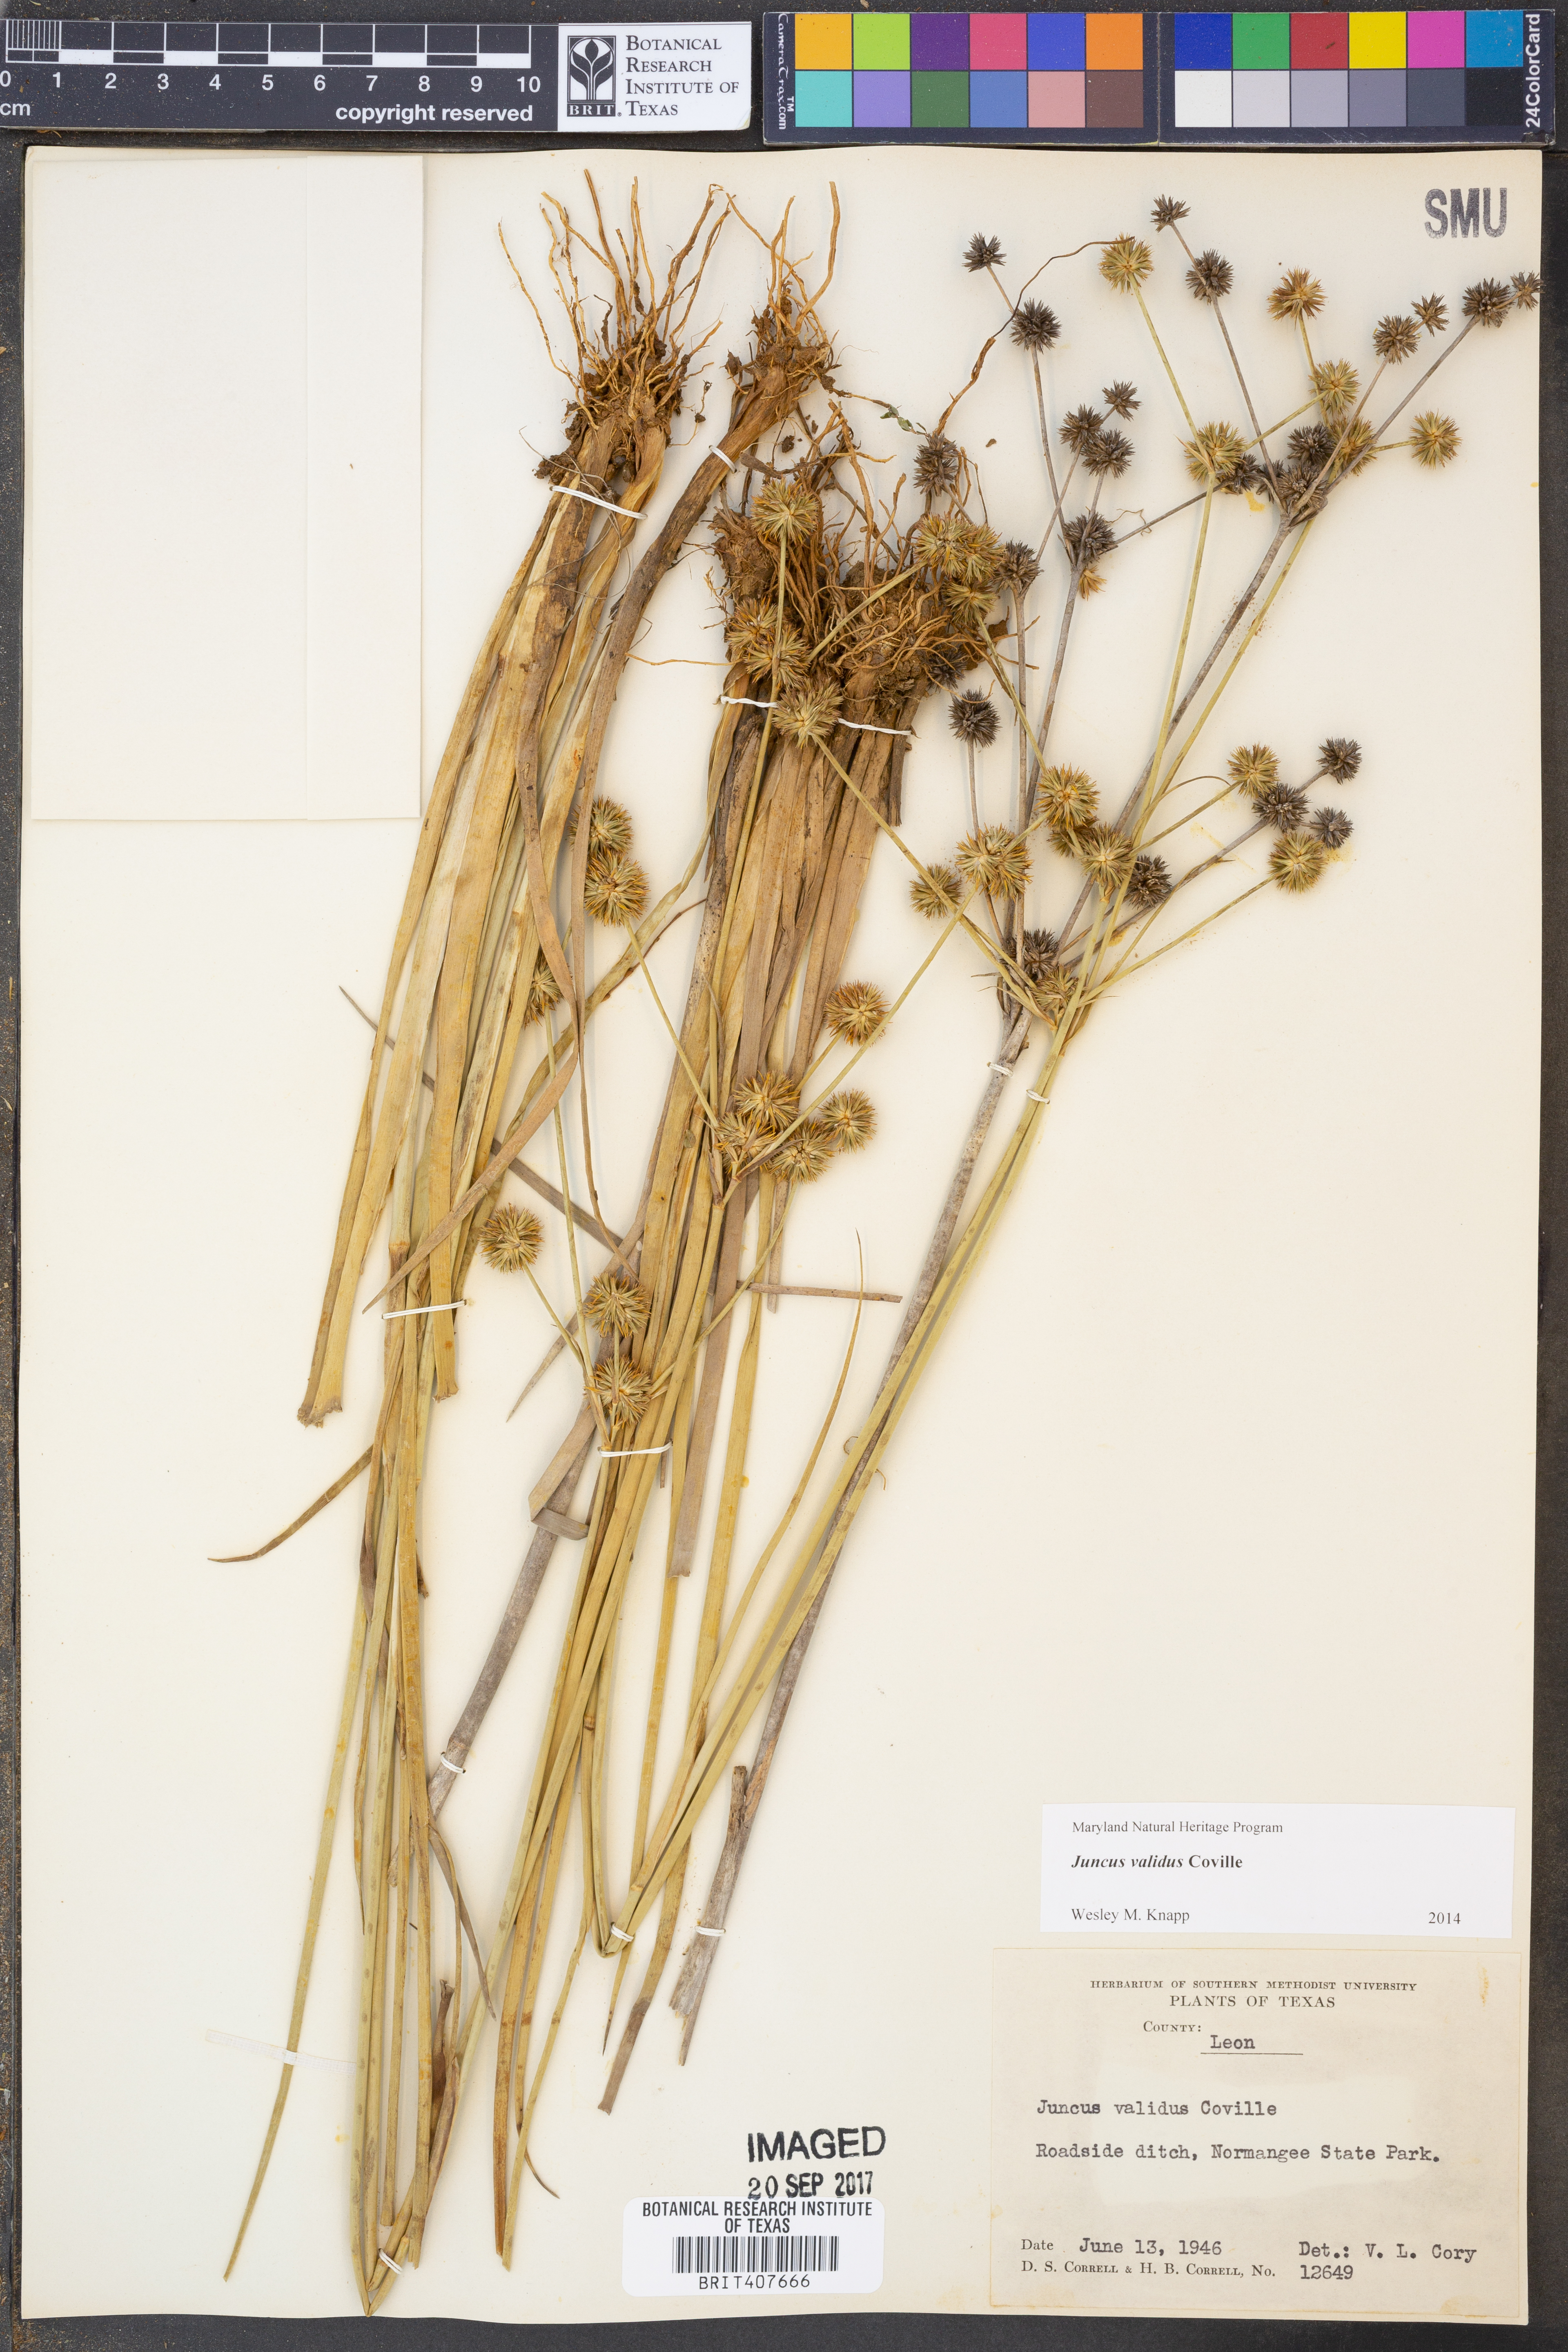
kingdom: Plantae
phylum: Tracheophyta
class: Liliopsida
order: Poales
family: Juncaceae
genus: Juncus
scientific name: Juncus validus
